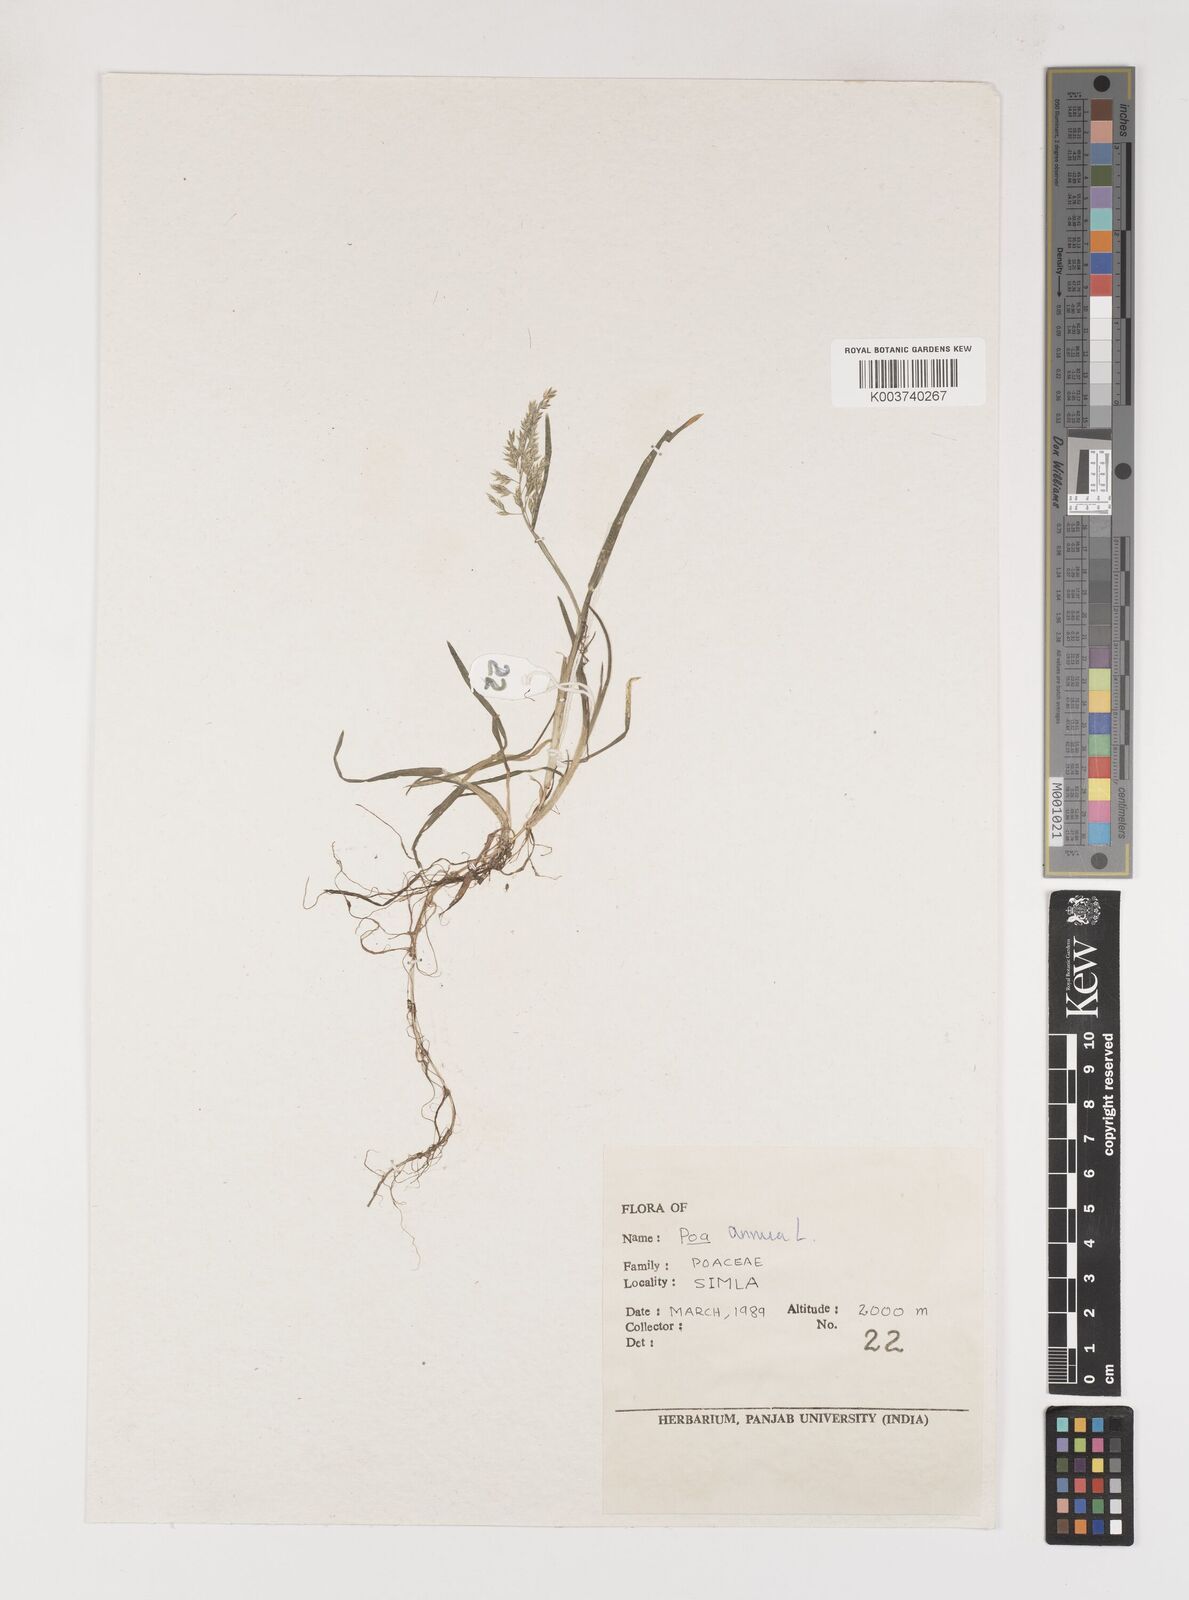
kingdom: Plantae
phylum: Tracheophyta
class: Liliopsida
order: Poales
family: Poaceae
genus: Poa
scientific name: Poa annua
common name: Annual bluegrass
